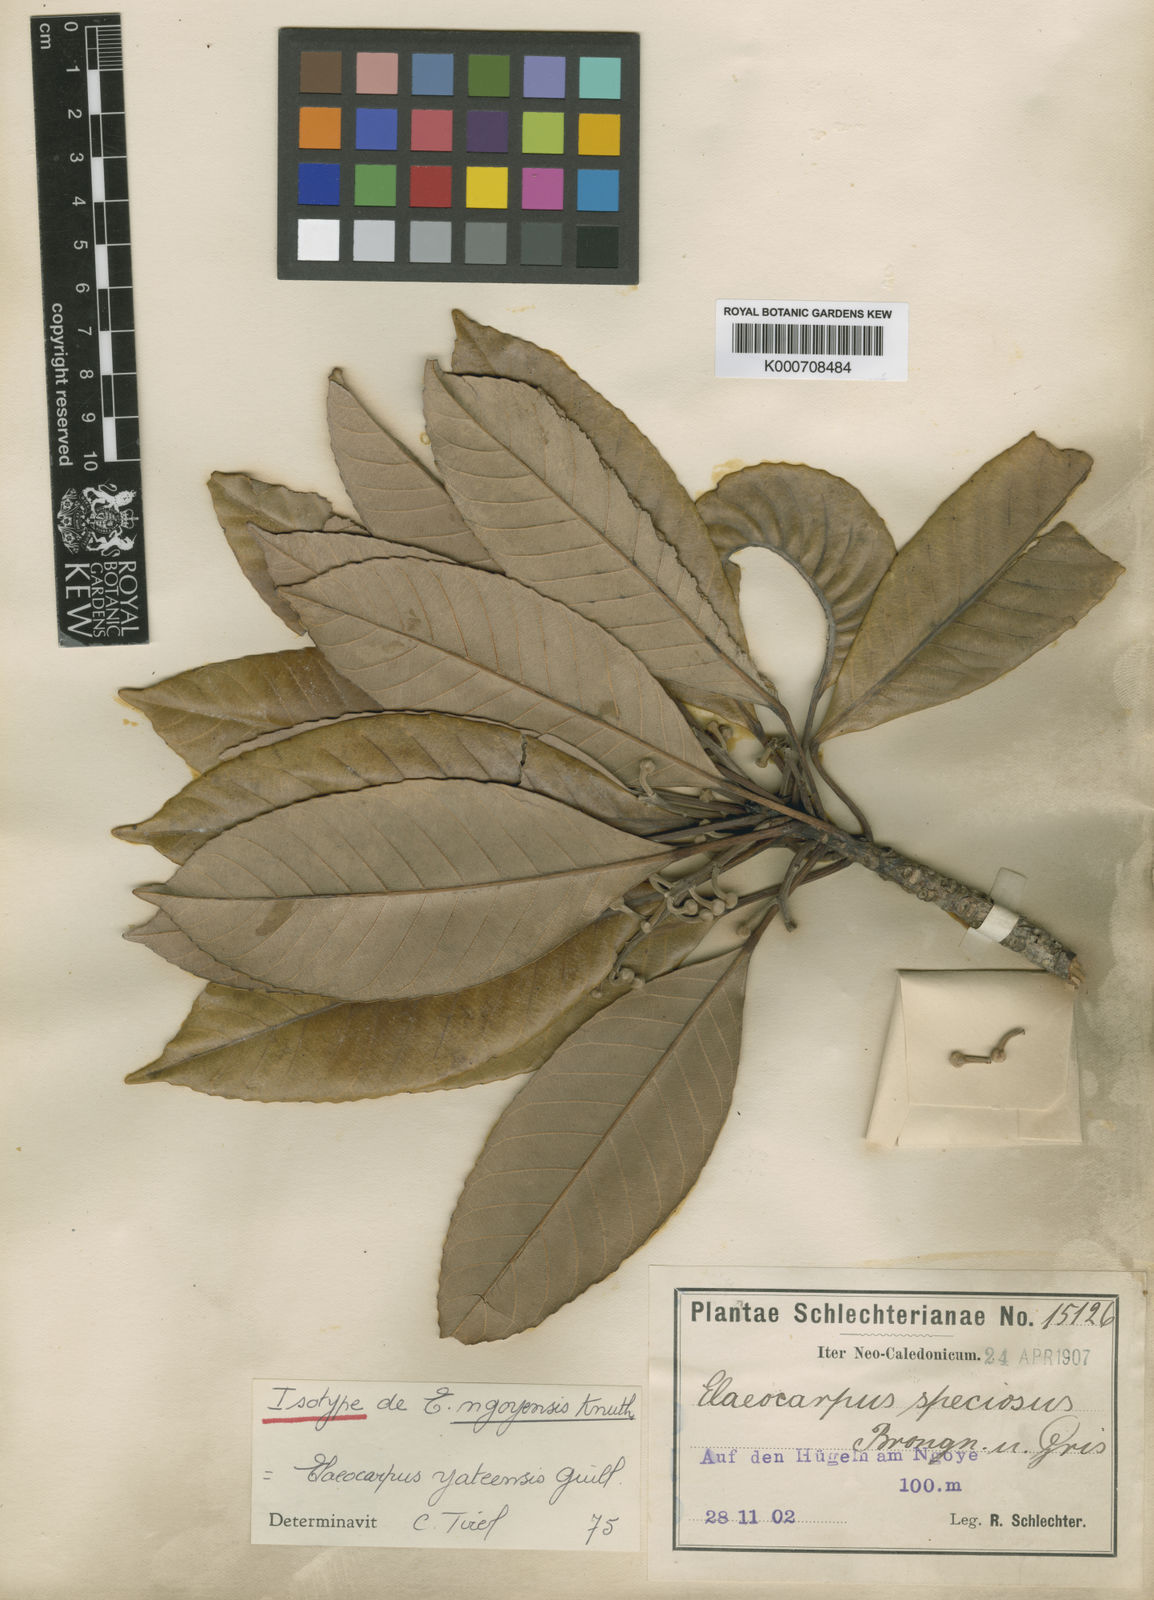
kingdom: Plantae
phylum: Tracheophyta
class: Magnoliopsida
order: Oxalidales
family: Elaeocarpaceae
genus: Elaeocarpus
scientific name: Elaeocarpus yateensis
